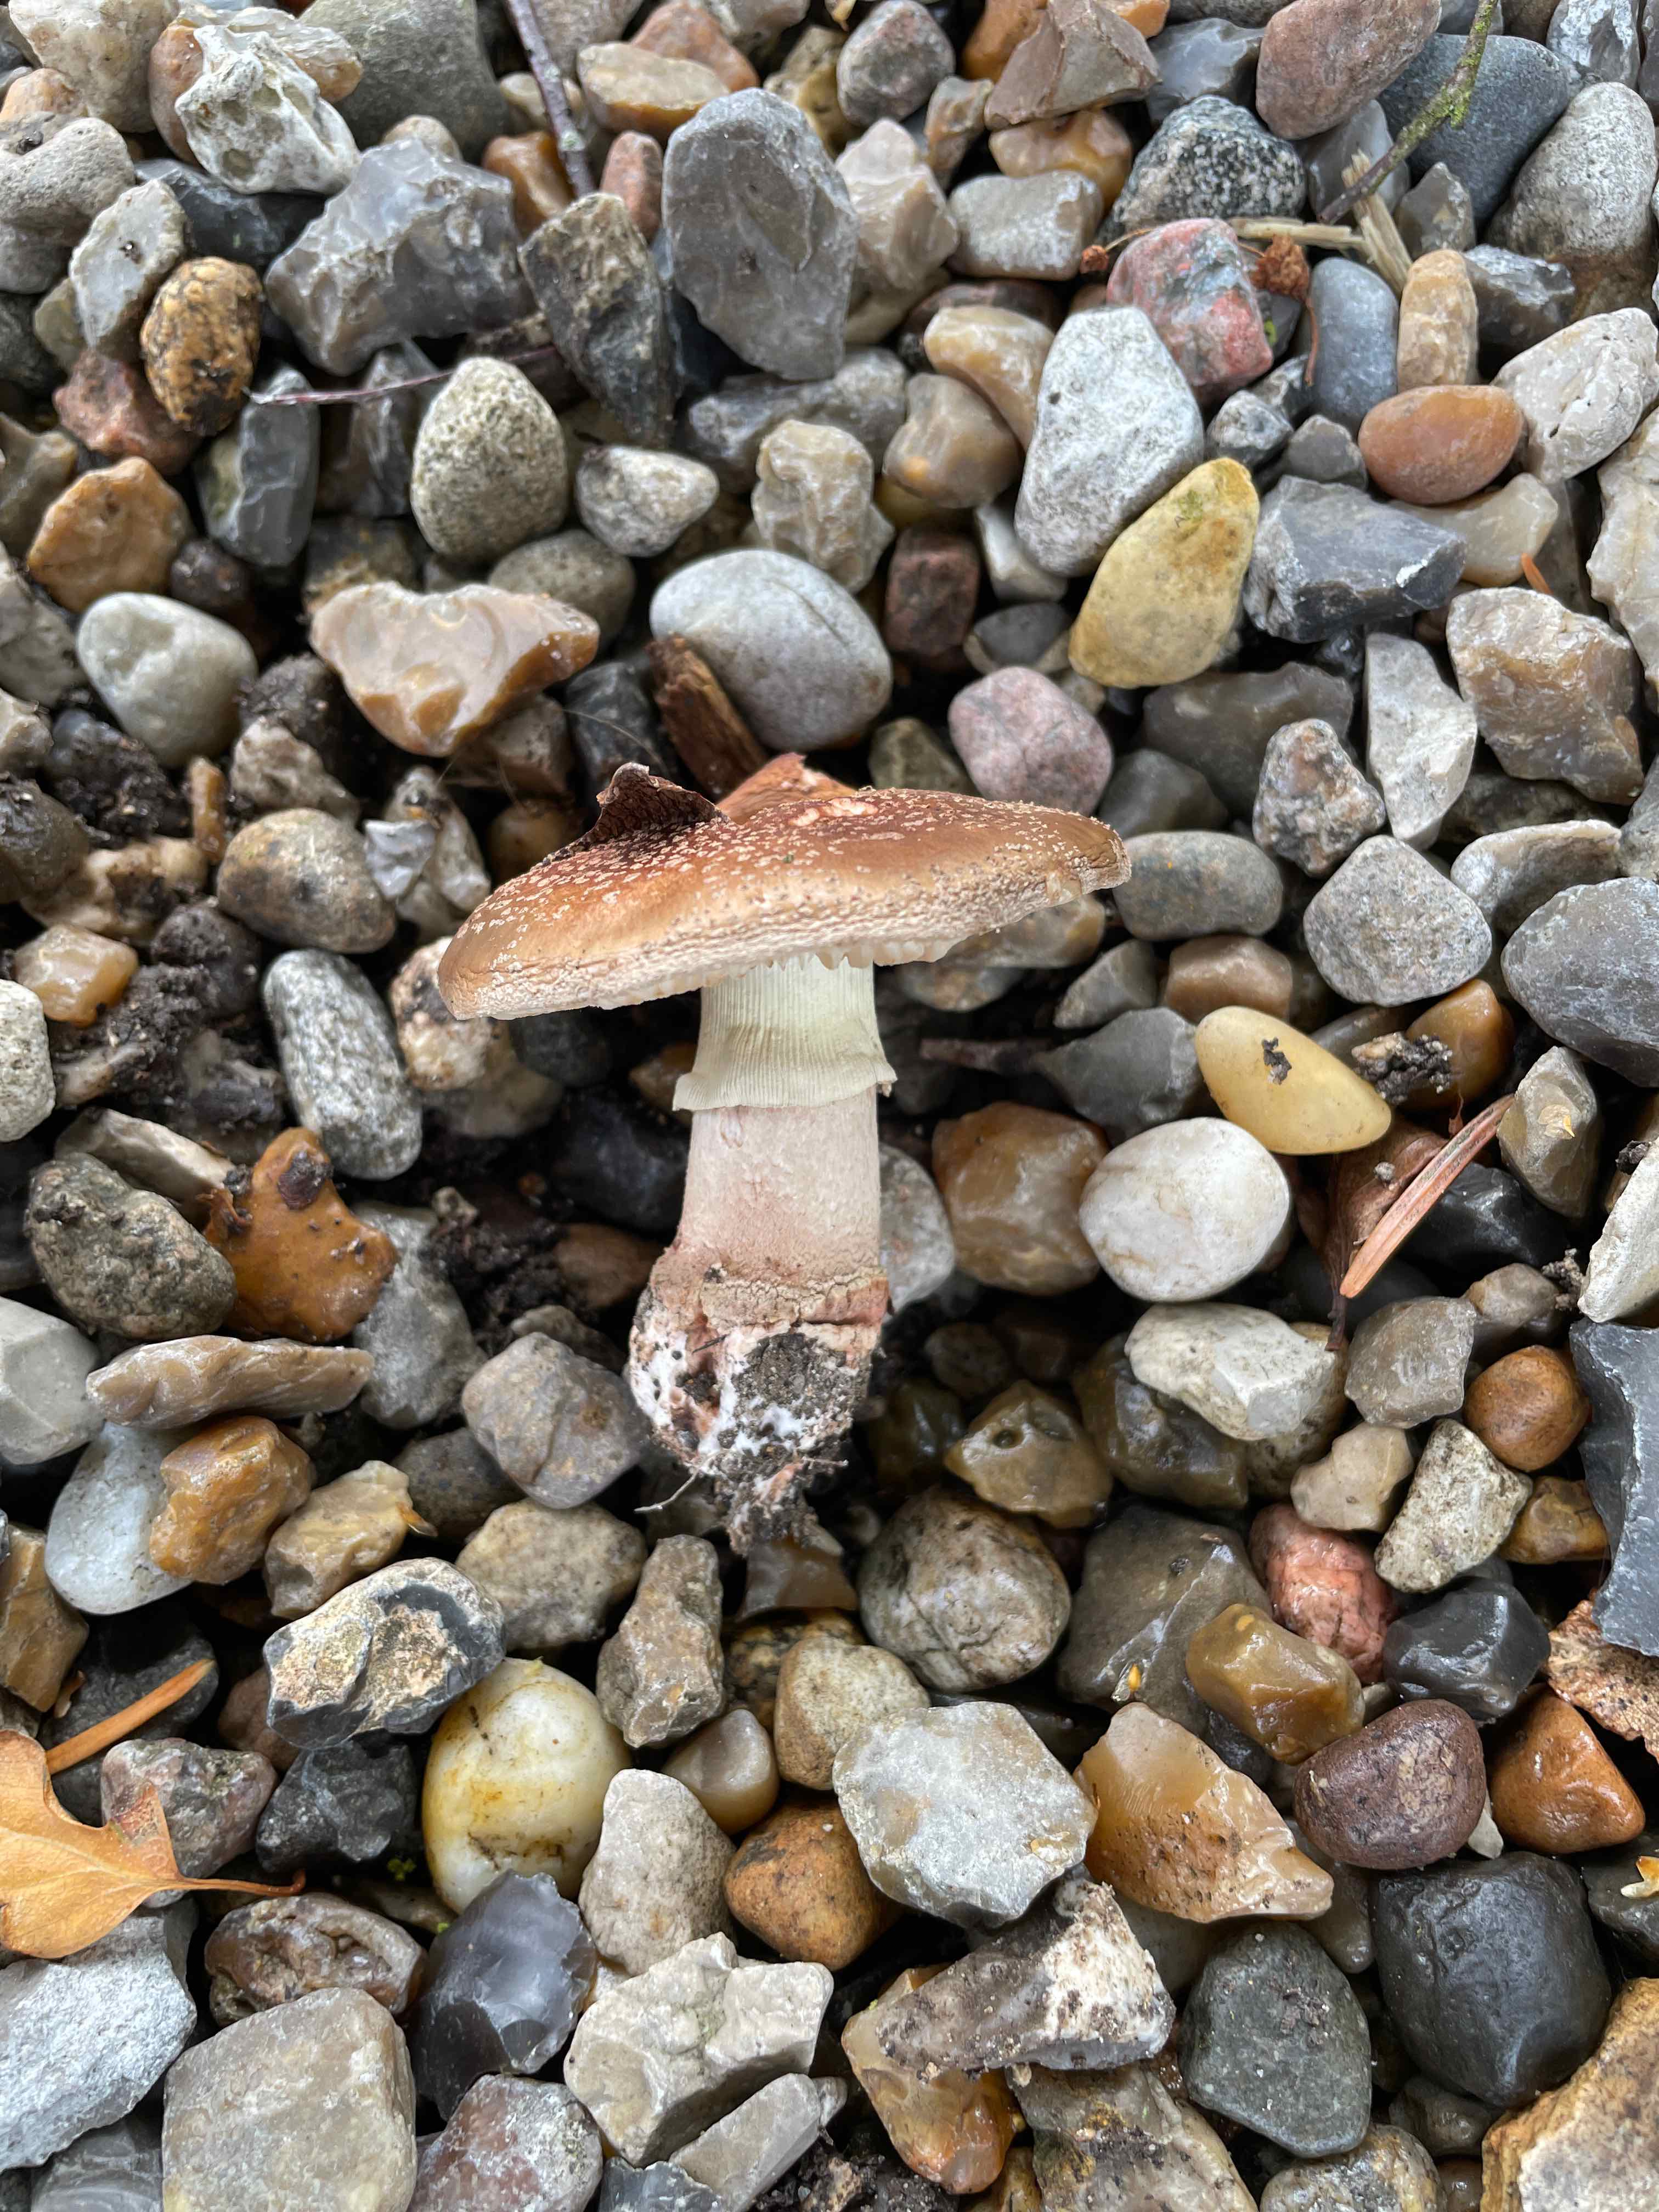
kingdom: Fungi
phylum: Basidiomycota
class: Agaricomycetes
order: Agaricales
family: Amanitaceae
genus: Amanita
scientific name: Amanita rubescens
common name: rødmende fluesvamp
